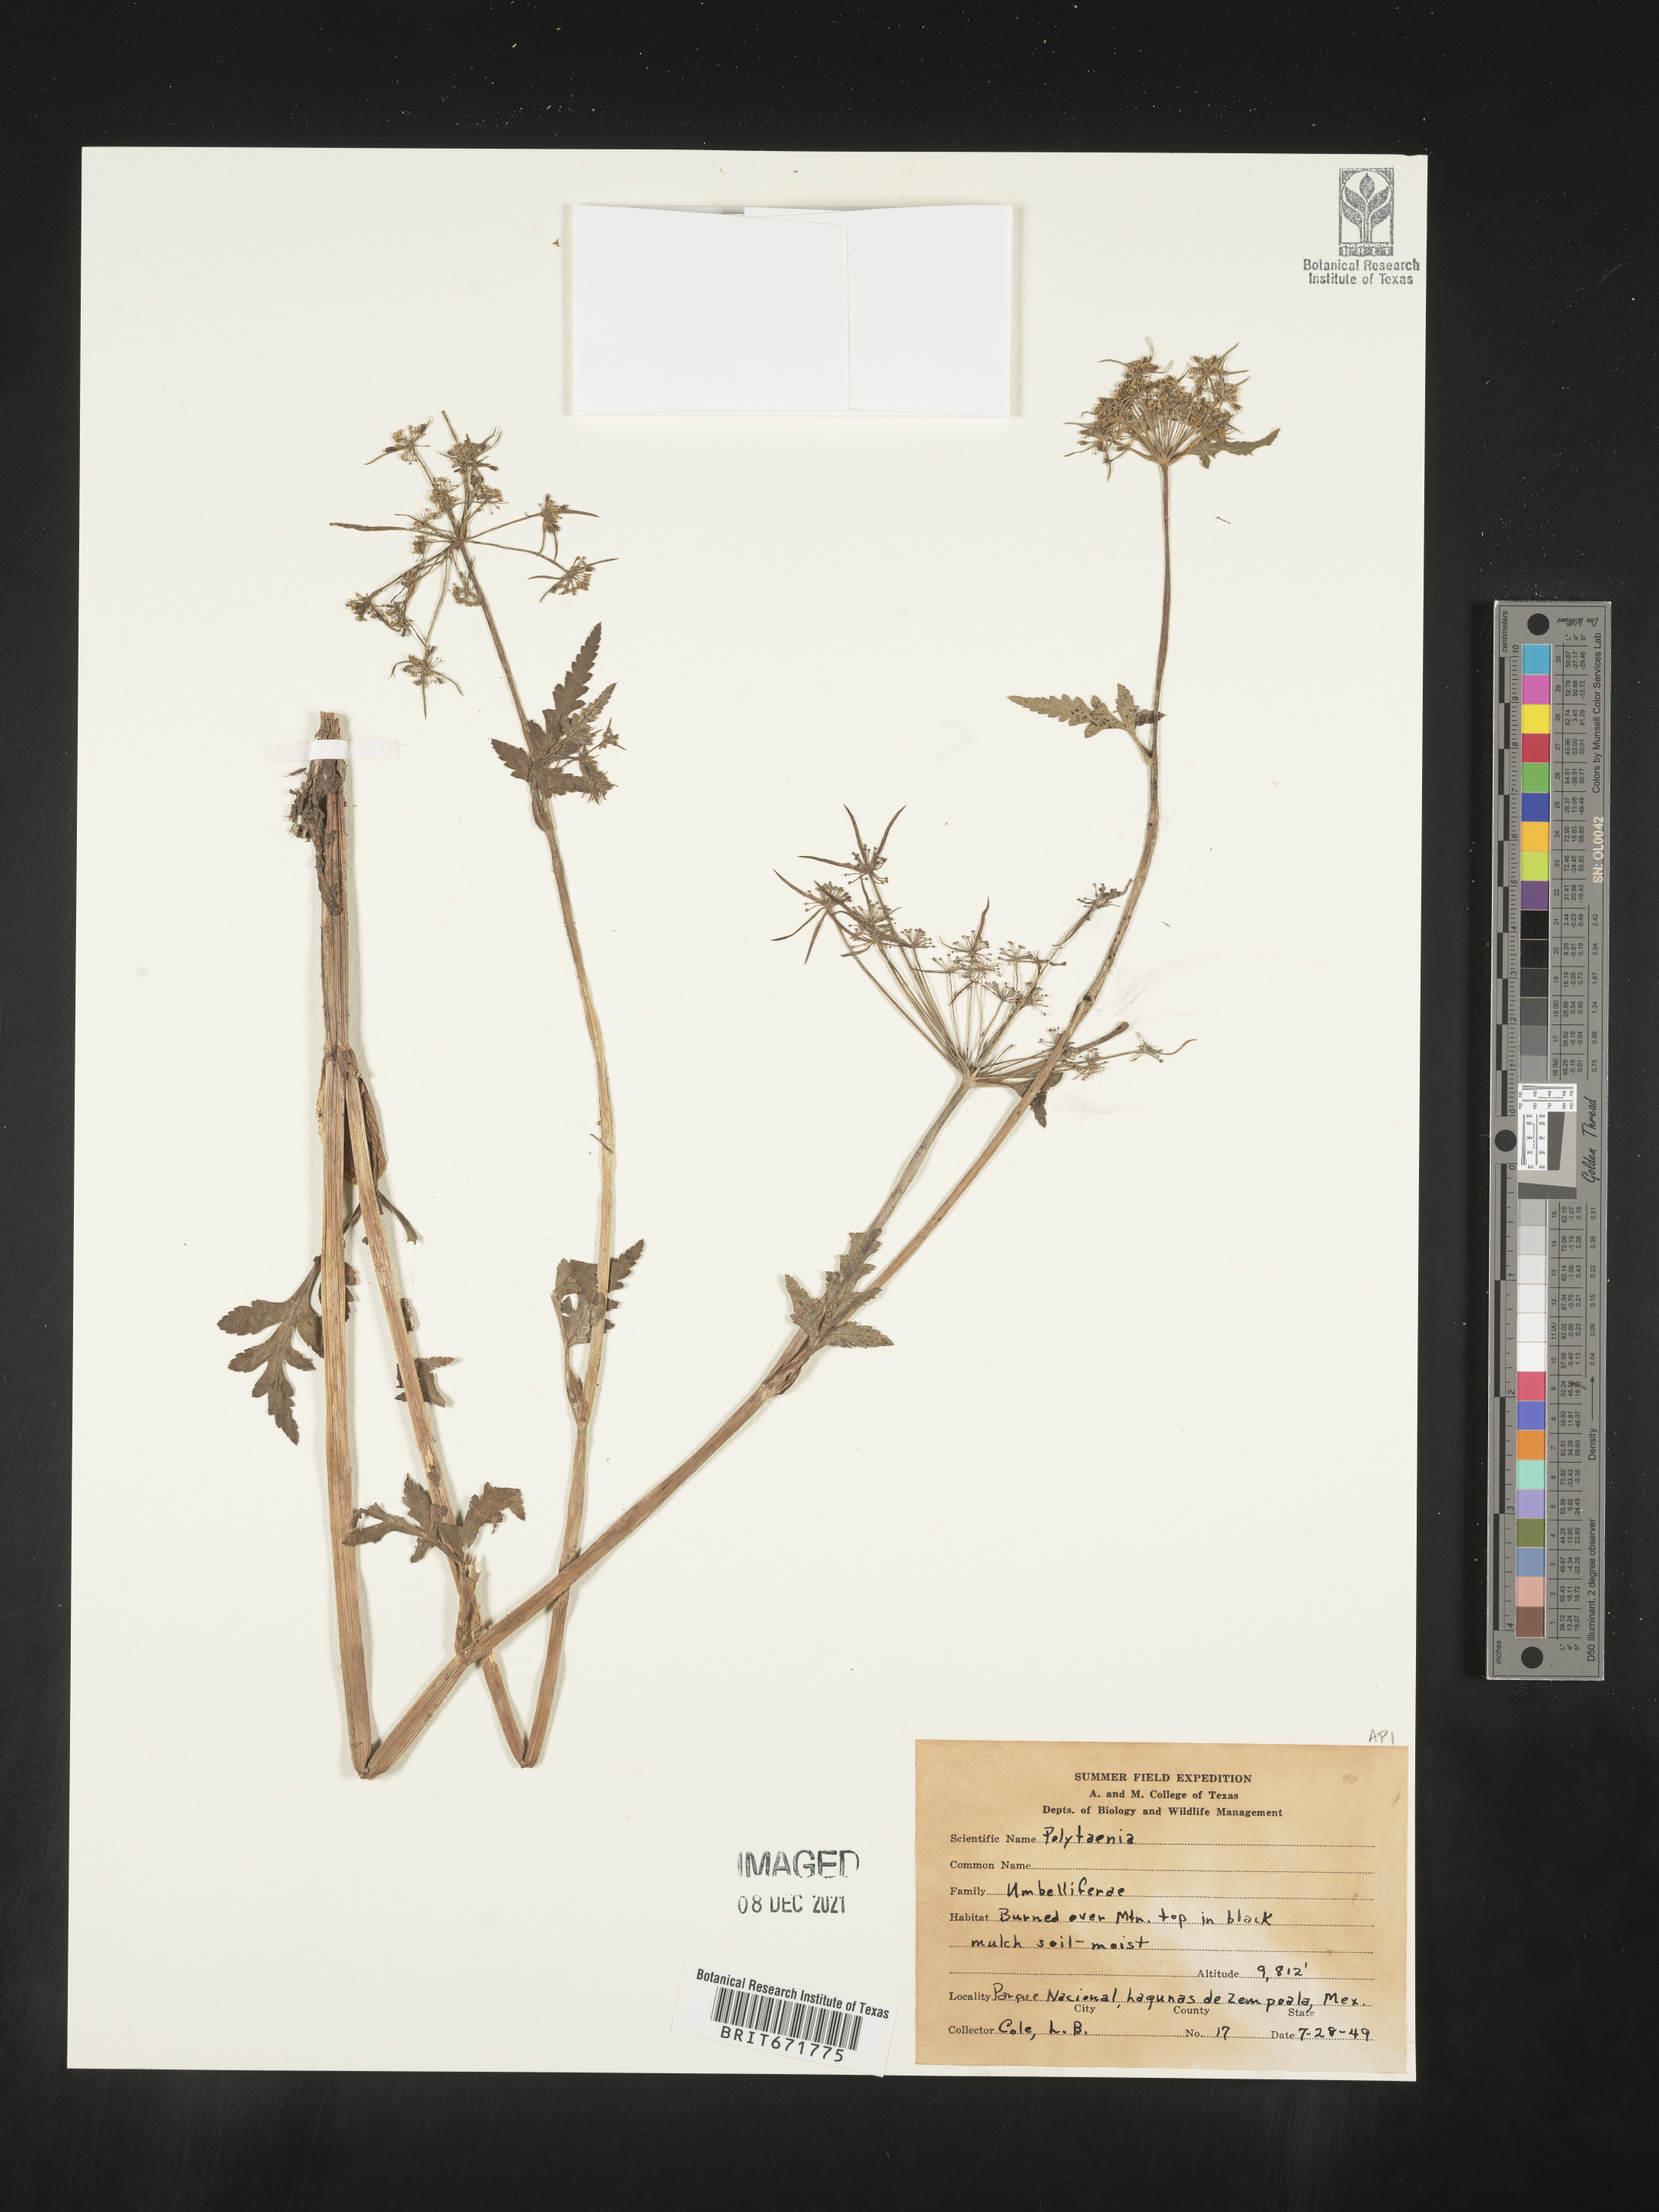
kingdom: Plantae
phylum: Tracheophyta
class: Magnoliopsida
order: Apiales
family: Apiaceae
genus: Polytaenia
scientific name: Polytaenia
